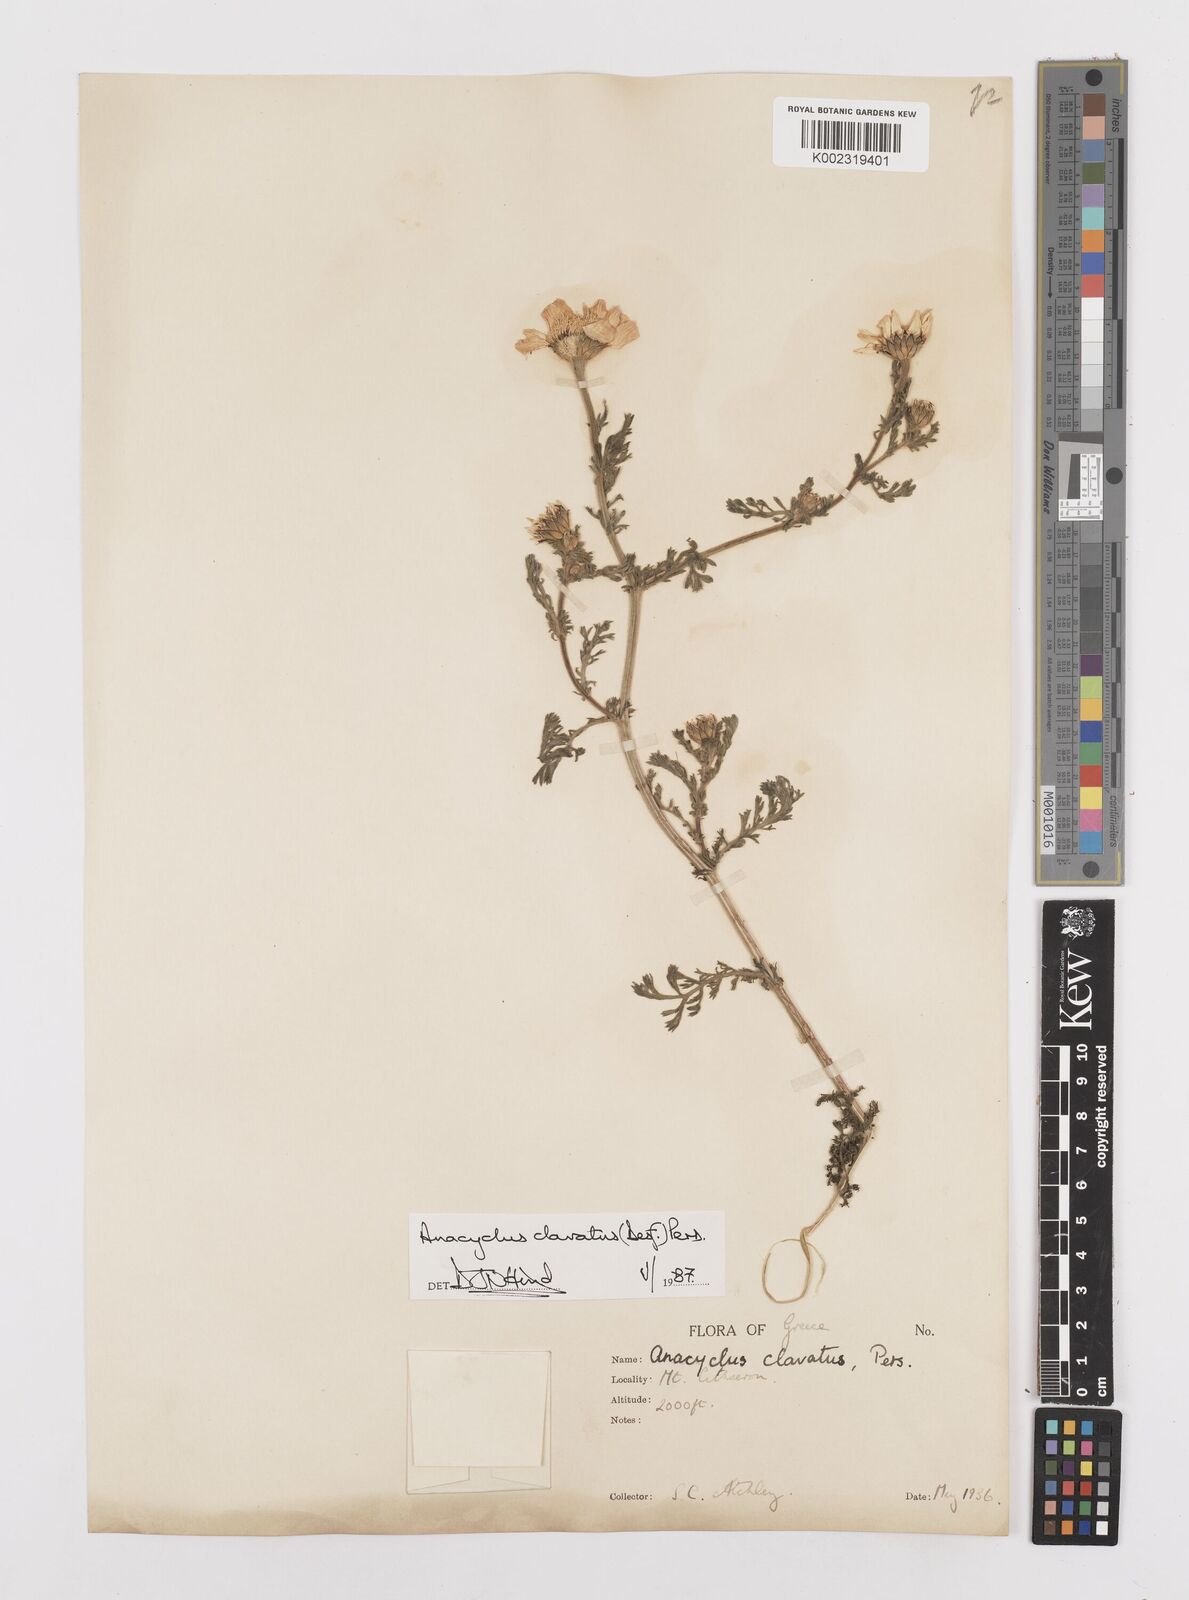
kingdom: Plantae
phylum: Tracheophyta
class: Magnoliopsida
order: Asterales
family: Asteraceae
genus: Anacyclus
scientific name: Anacyclus clavatus
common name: Whitebuttons
